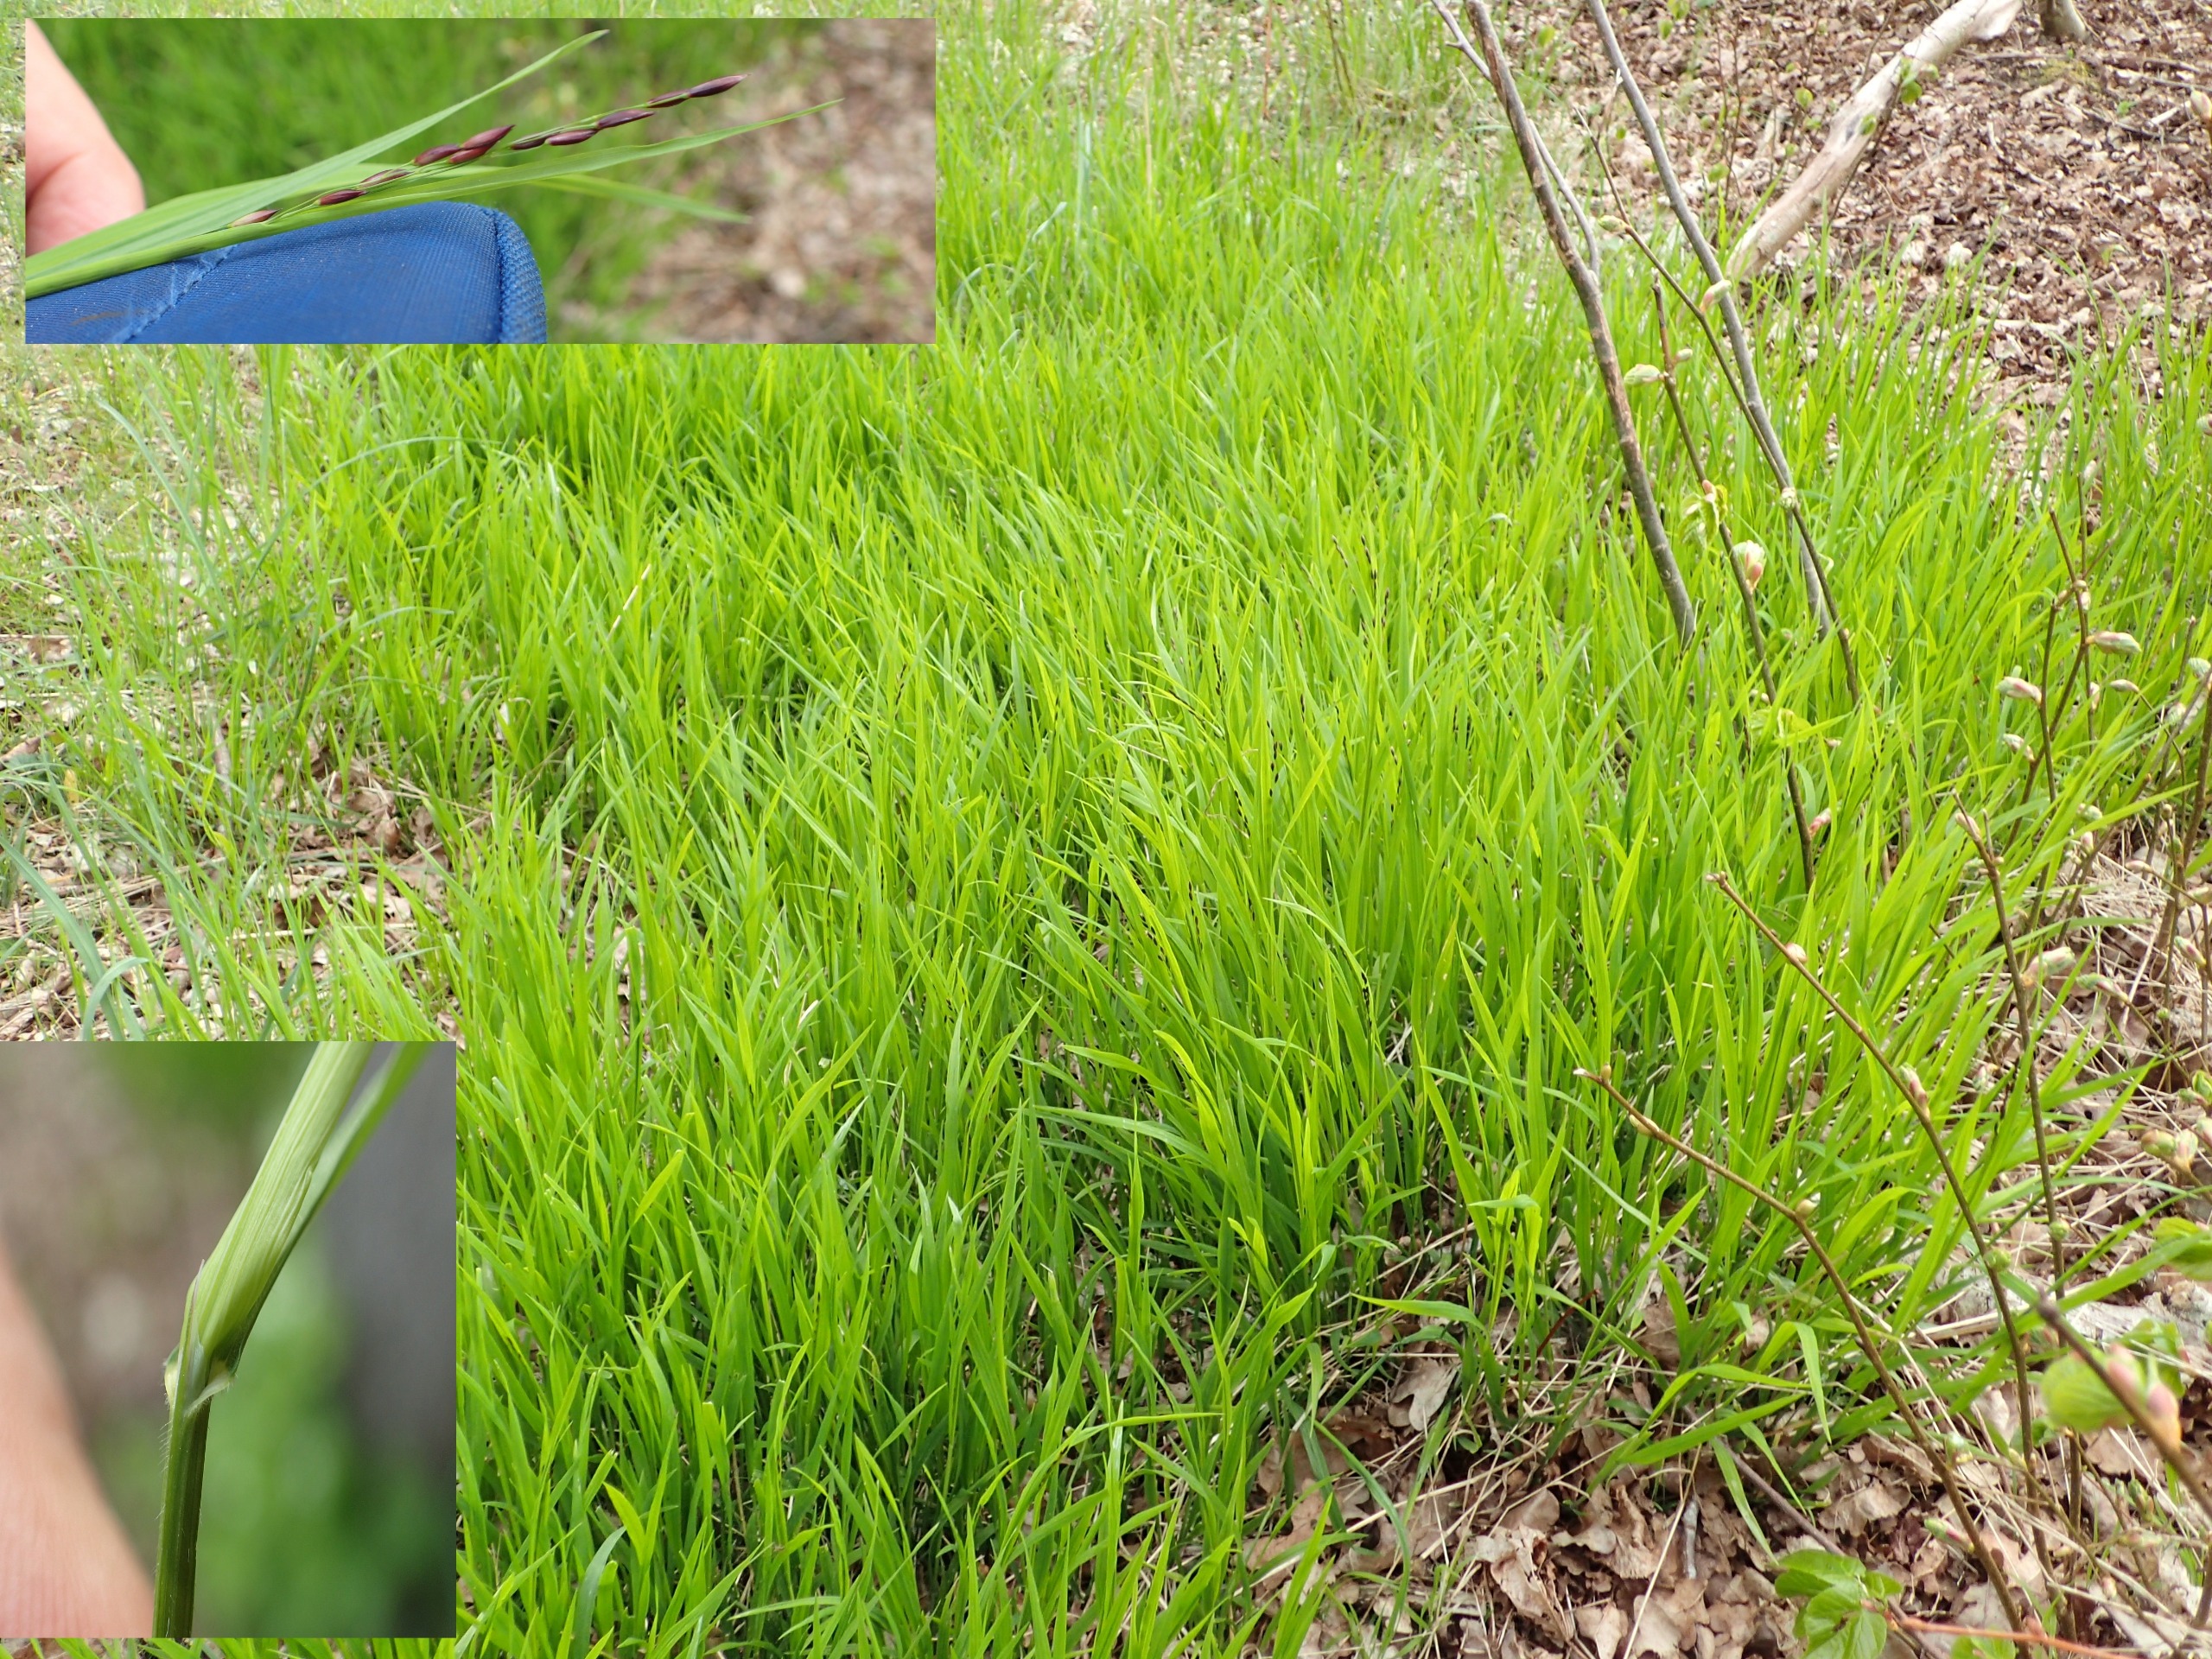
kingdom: Plantae
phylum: Tracheophyta
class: Liliopsida
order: Poales
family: Poaceae
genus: Melica
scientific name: Melica uniflora
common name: Enblomstret flitteraks
